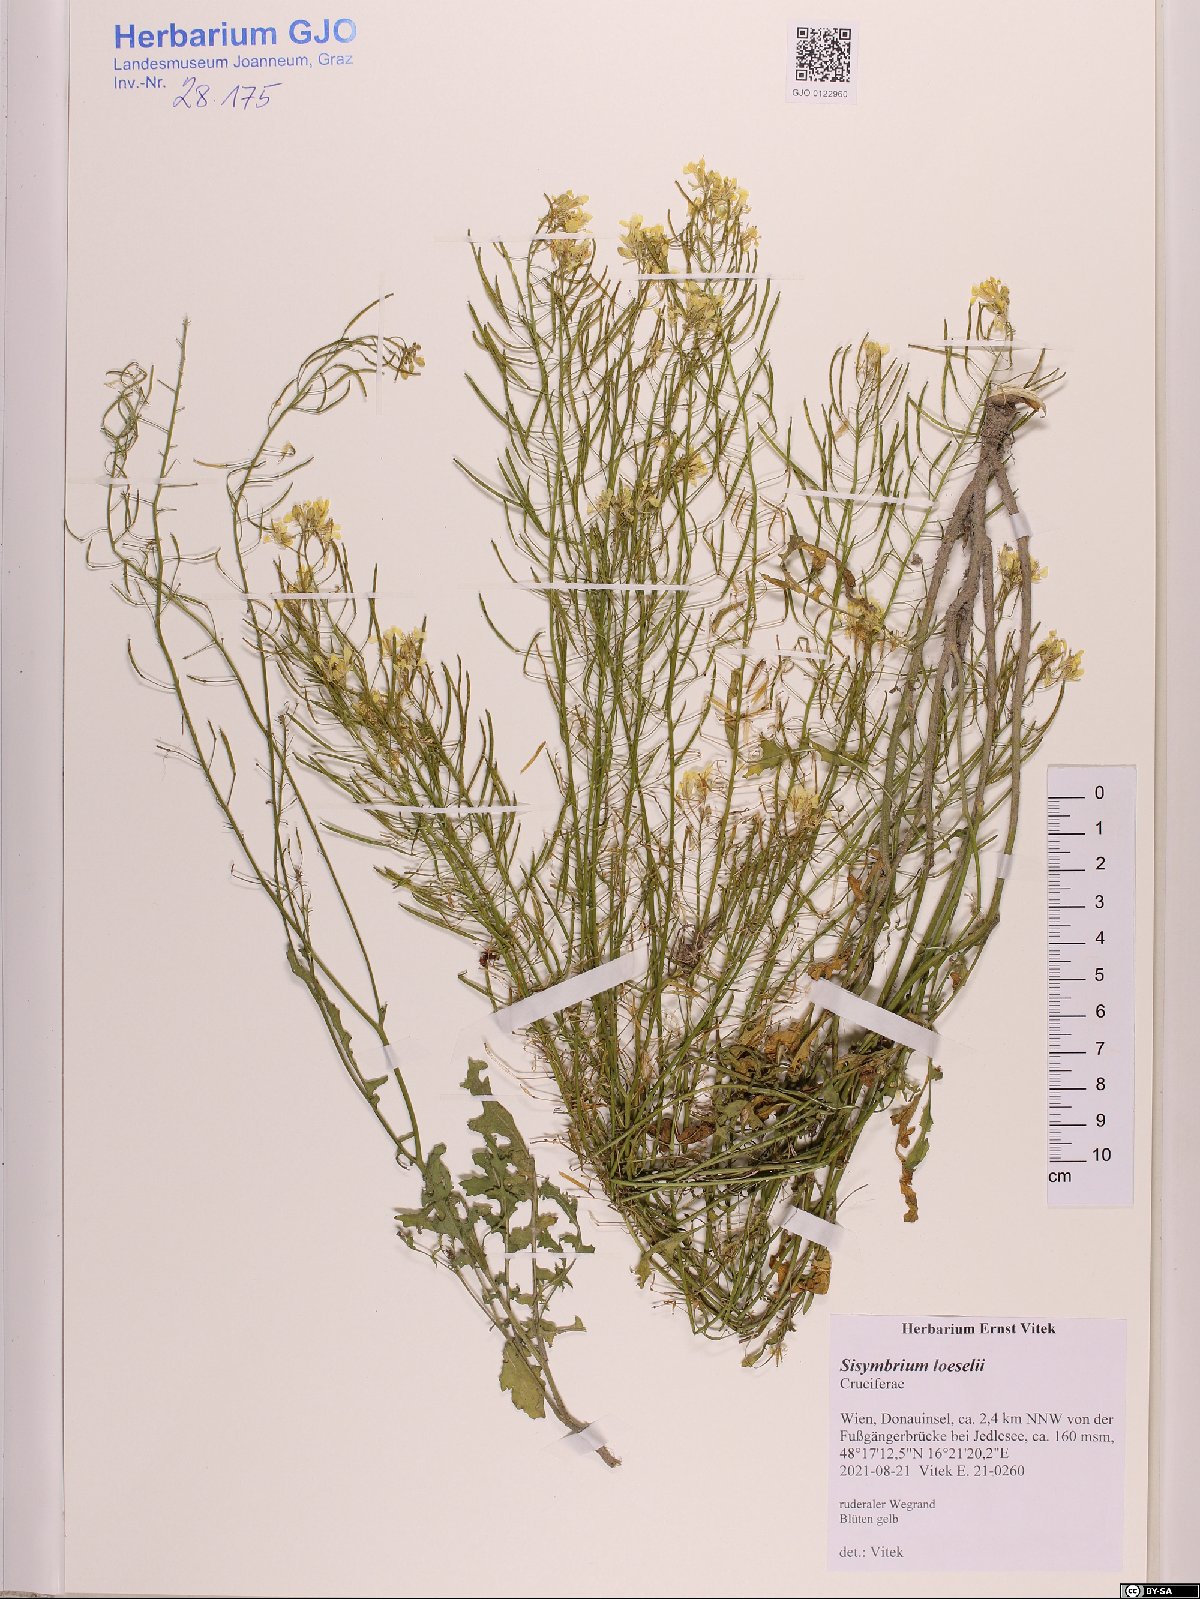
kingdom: Plantae
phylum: Tracheophyta
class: Magnoliopsida
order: Brassicales
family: Brassicaceae
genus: Sisymbrium
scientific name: Sisymbrium loeselii
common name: False london-rocket
